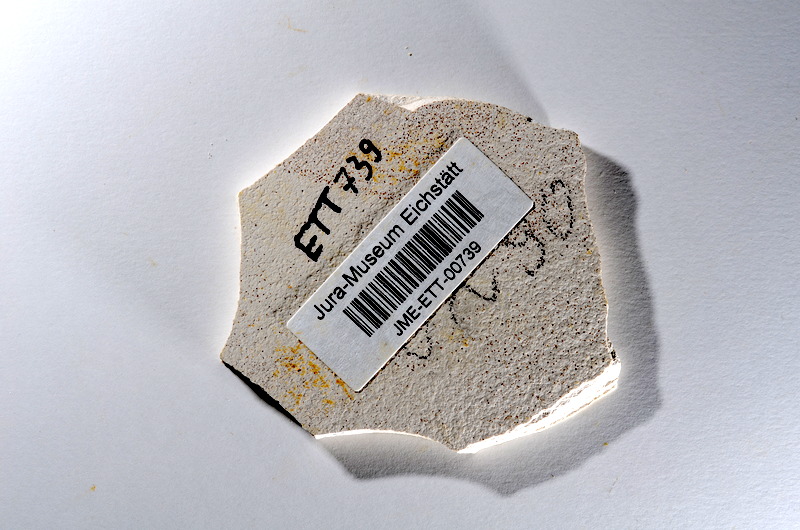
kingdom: Animalia
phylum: Chordata
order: Salmoniformes
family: Orthogonikleithridae
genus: Orthogonikleithrus
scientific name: Orthogonikleithrus hoelli
